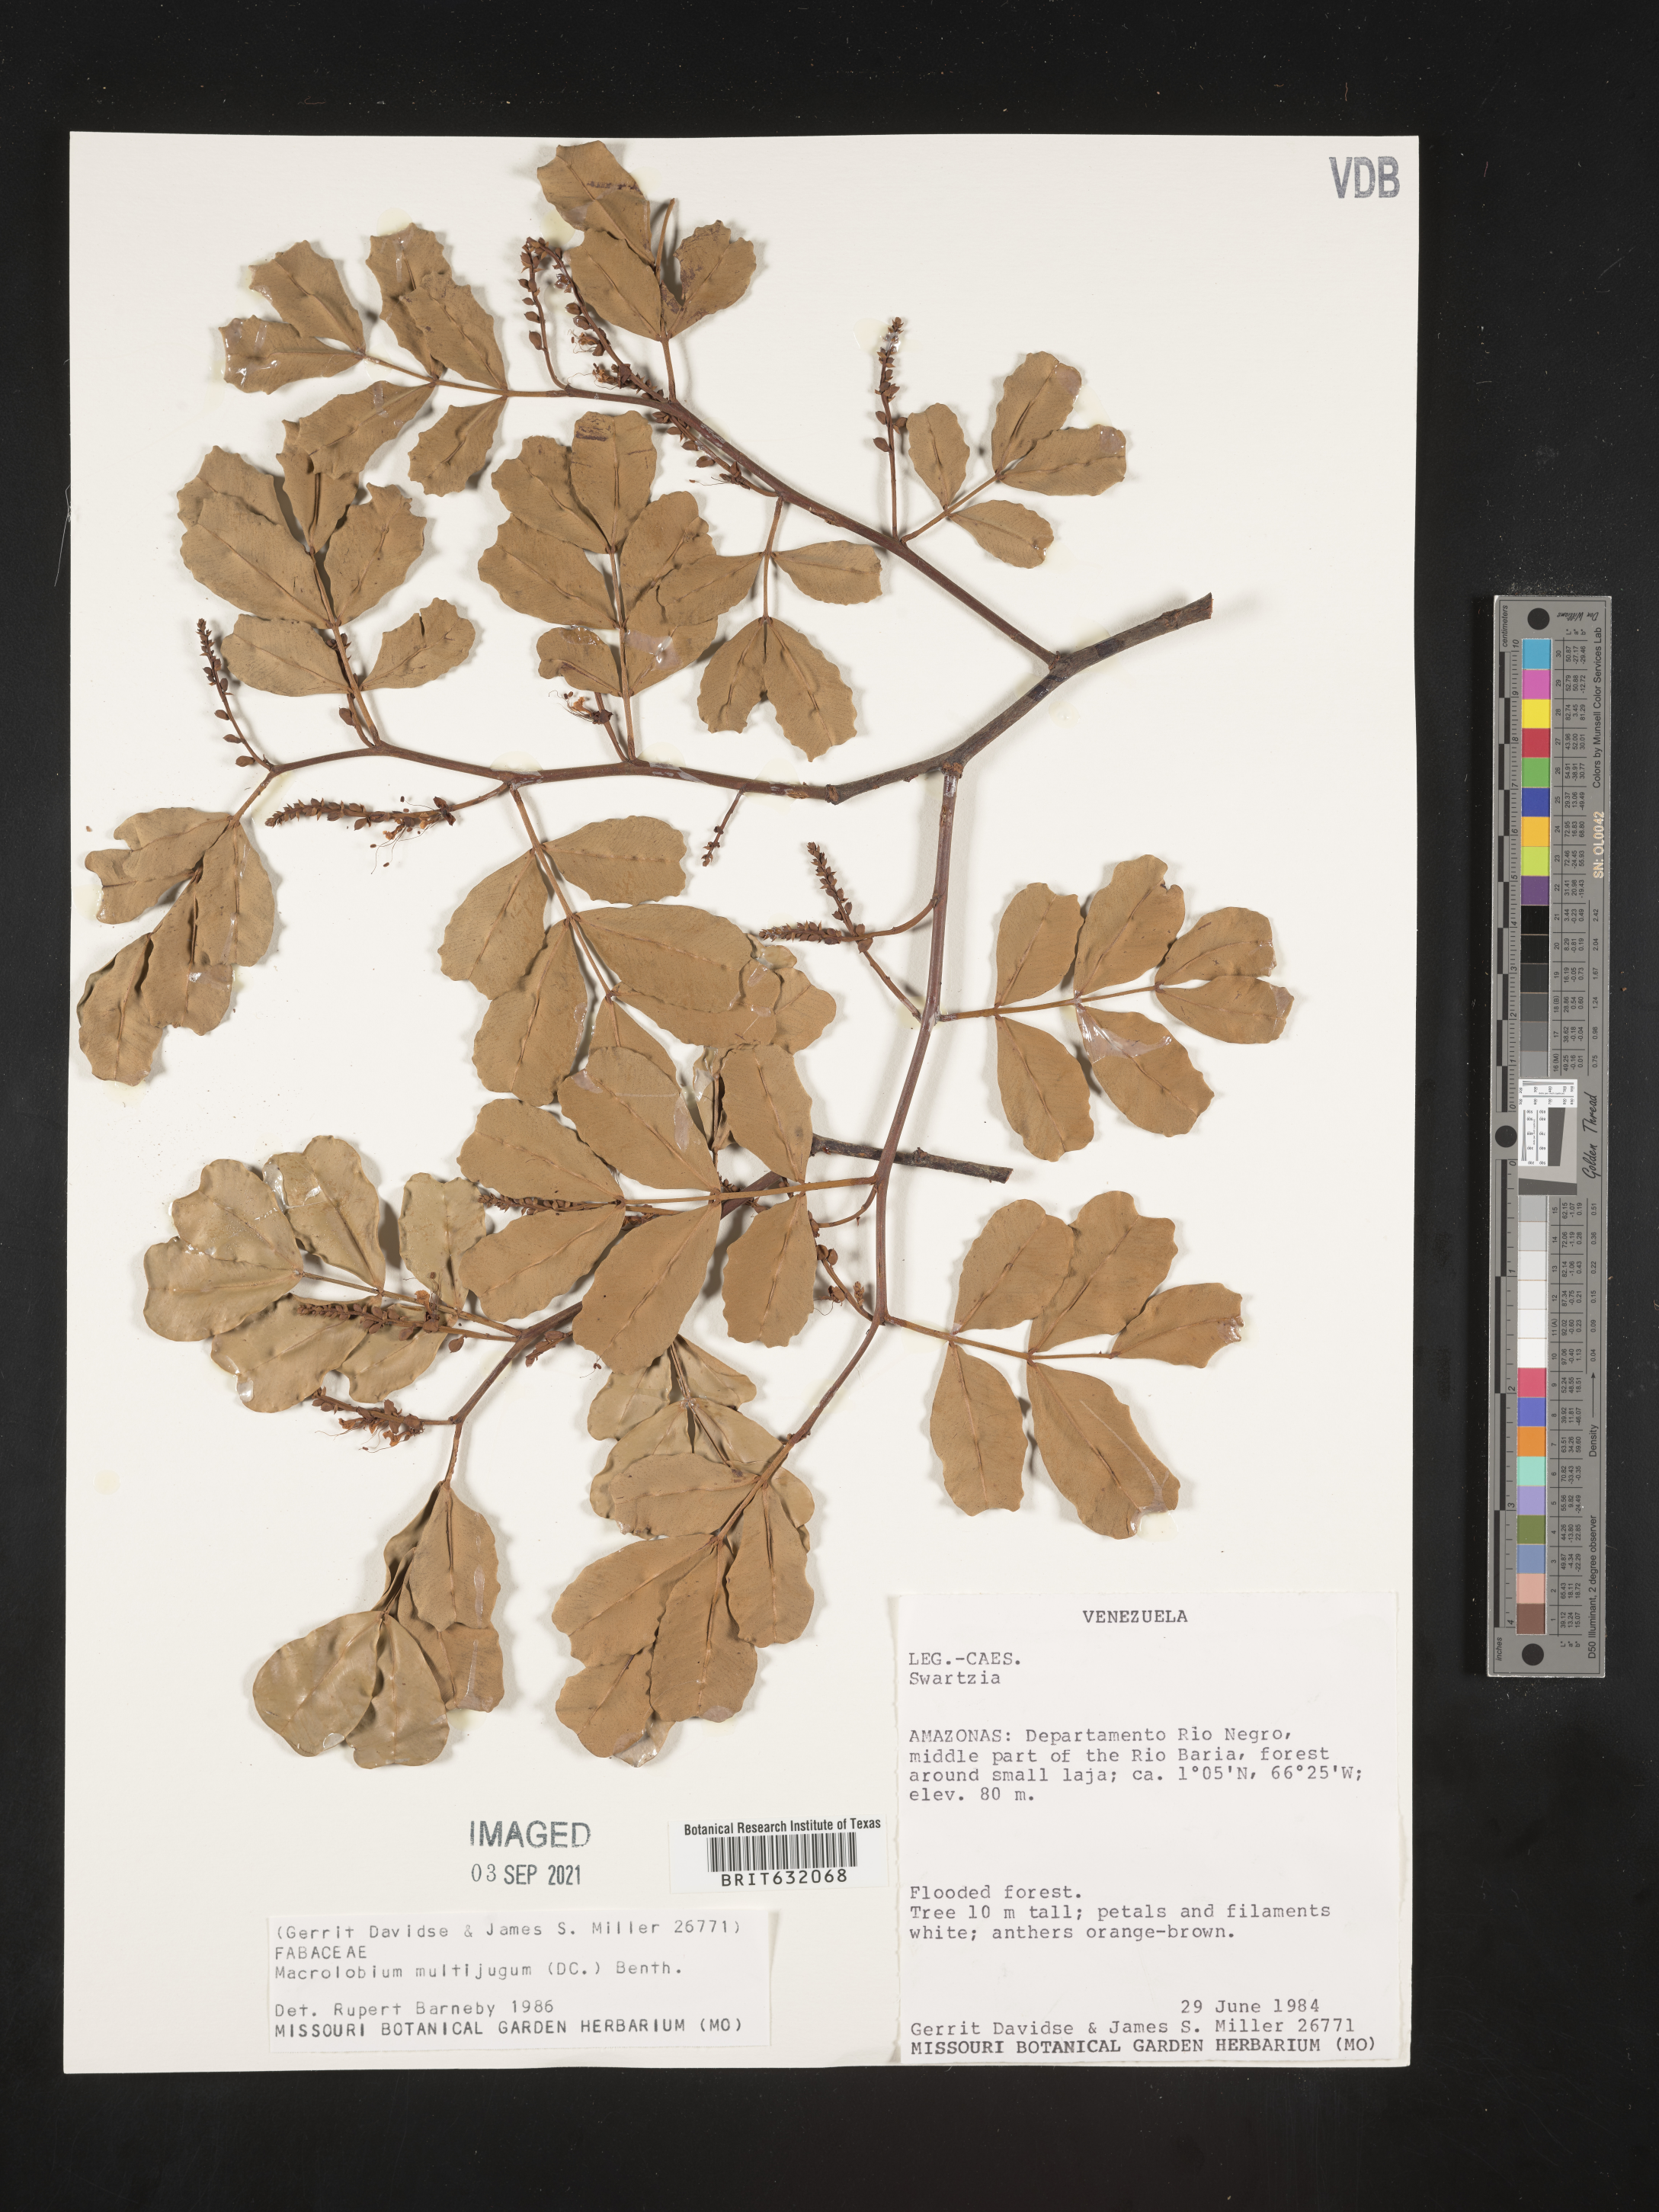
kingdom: Plantae
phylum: Tracheophyta
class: Magnoliopsida
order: Fabales
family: Fabaceae
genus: Macrolobium
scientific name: Macrolobium
